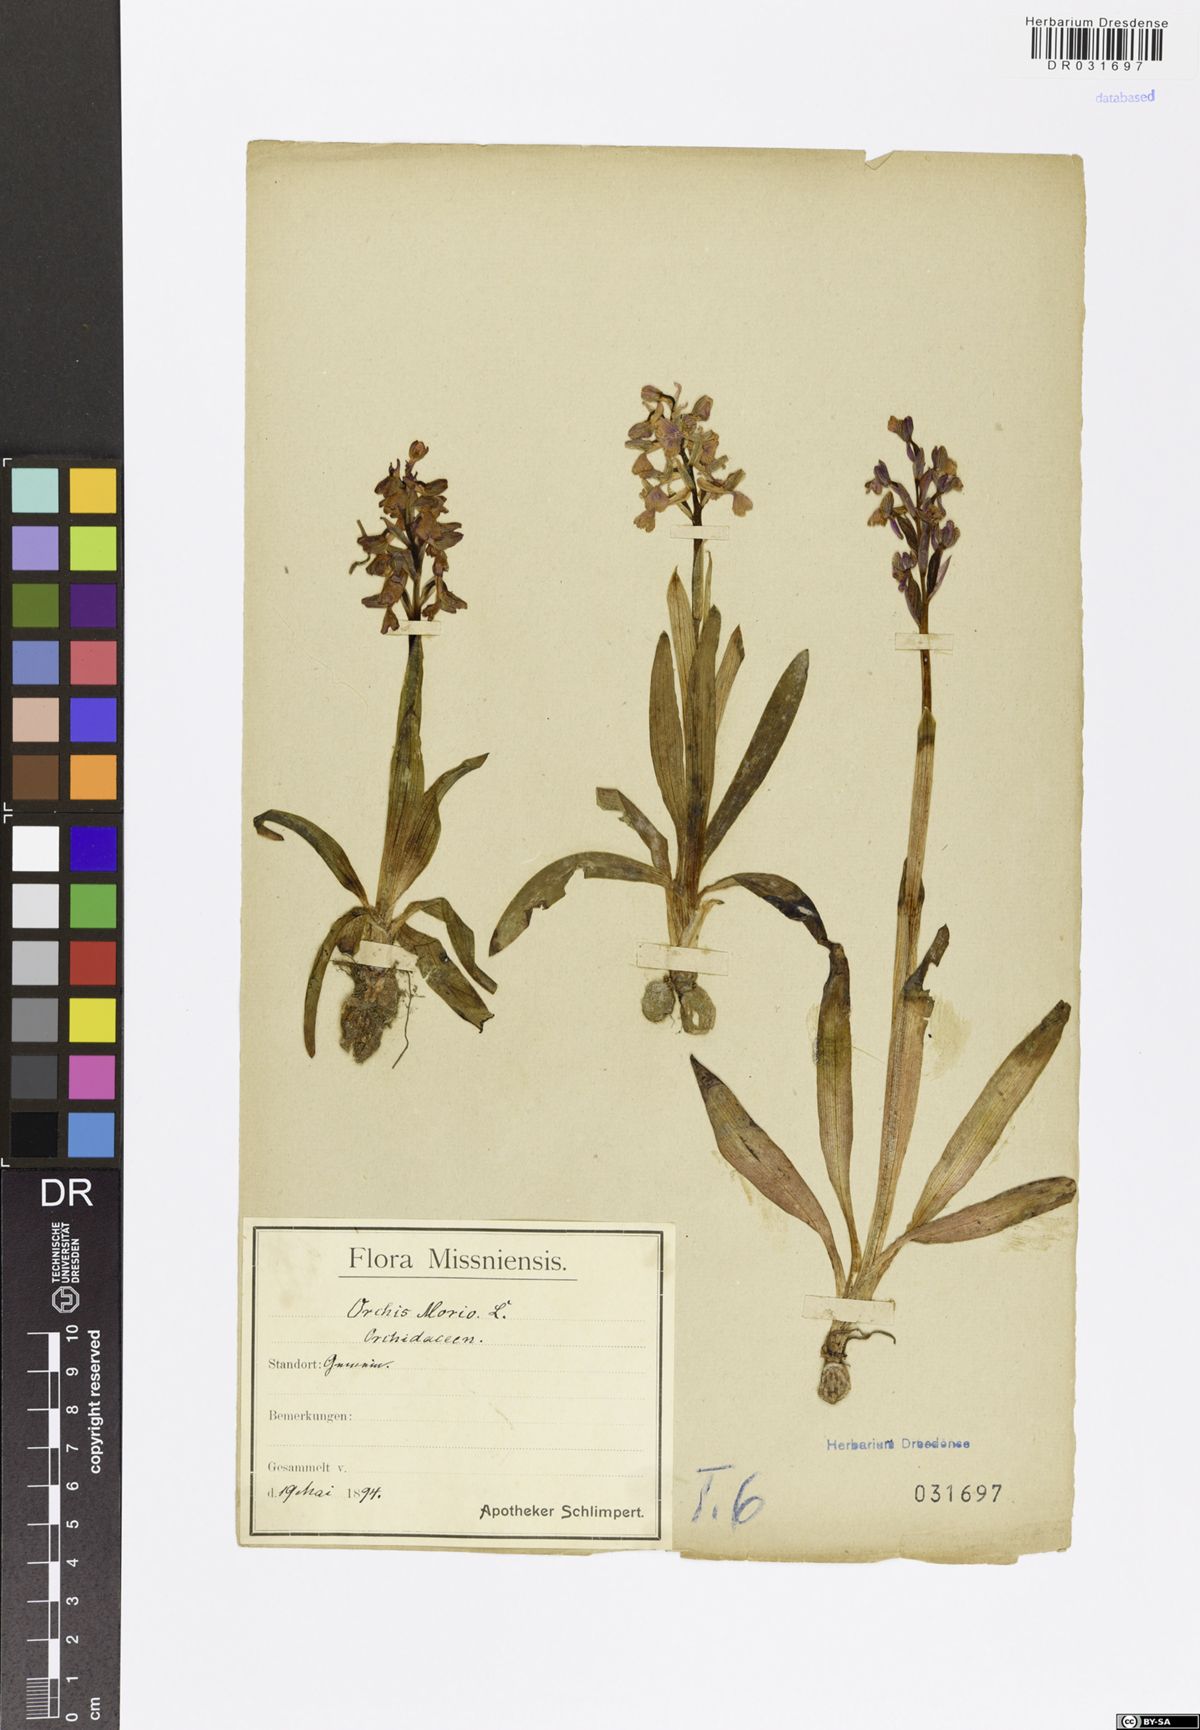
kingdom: Plantae
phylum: Tracheophyta
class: Liliopsida
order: Asparagales
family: Orchidaceae
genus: Anacamptis
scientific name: Anacamptis morio
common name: Green-winged orchid
